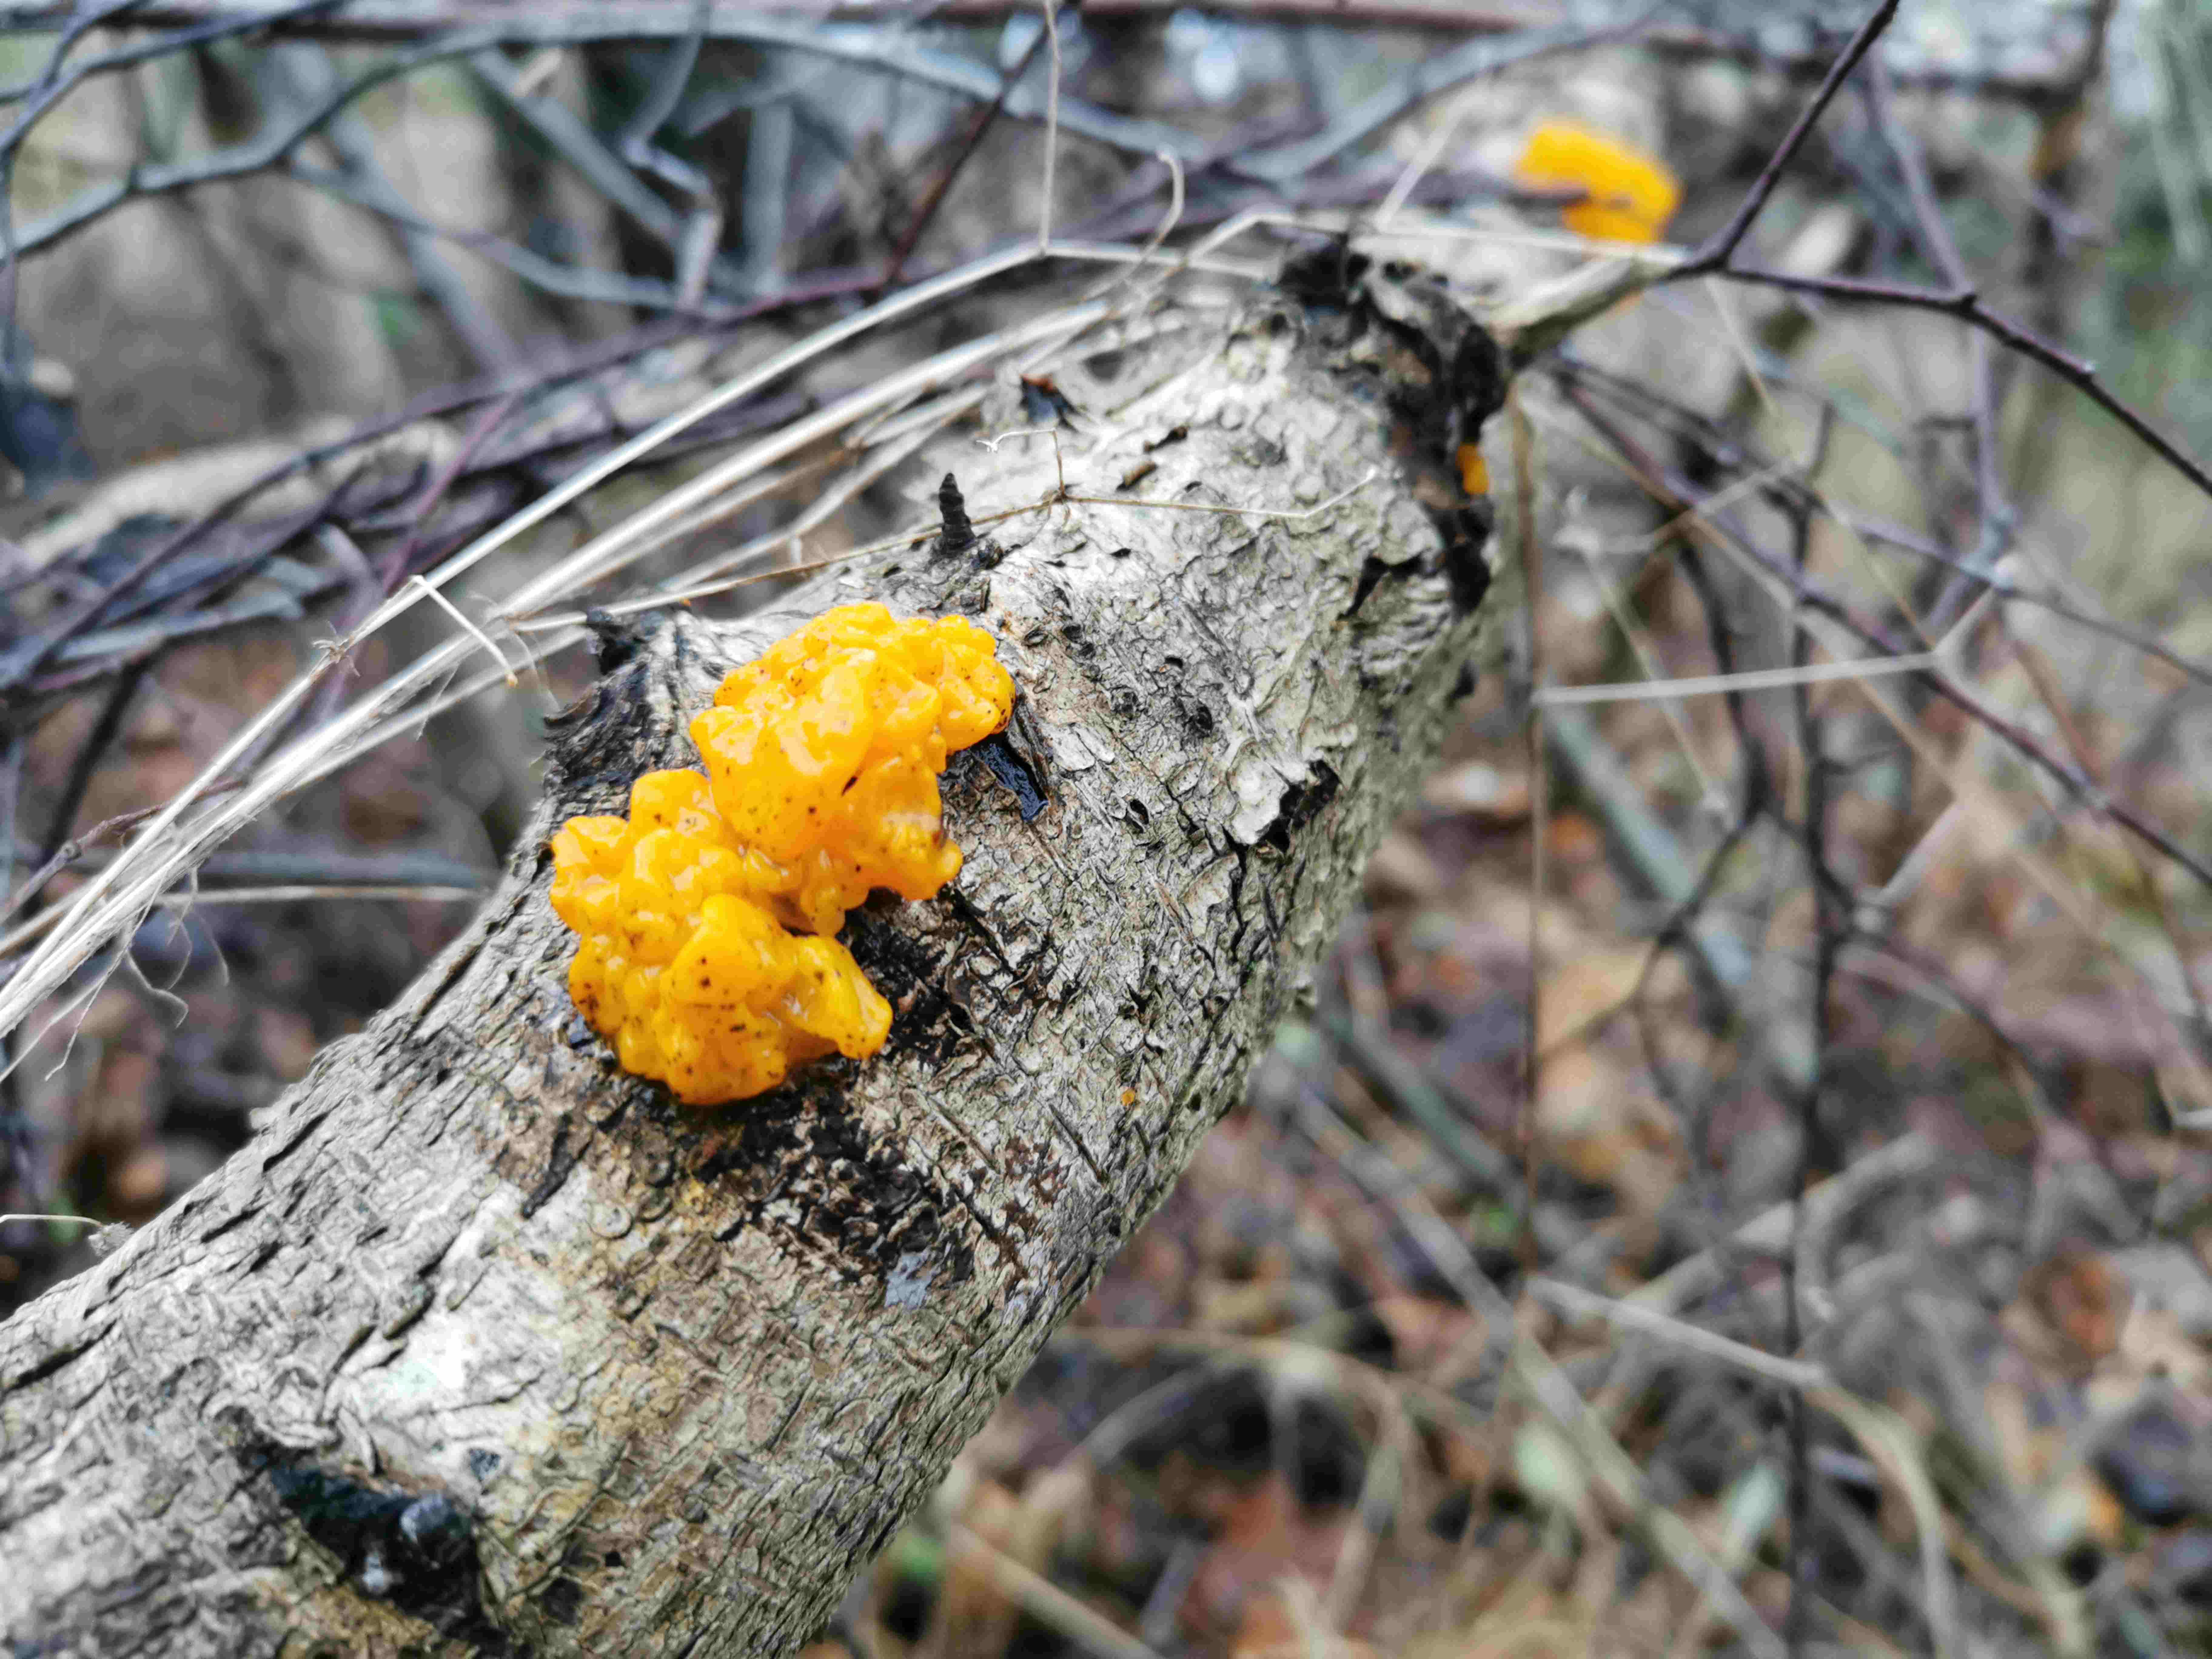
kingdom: Fungi
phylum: Basidiomycota
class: Tremellomycetes
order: Tremellales
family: Tremellaceae
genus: Tremella
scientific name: Tremella mesenterica
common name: gul bævresvamp
